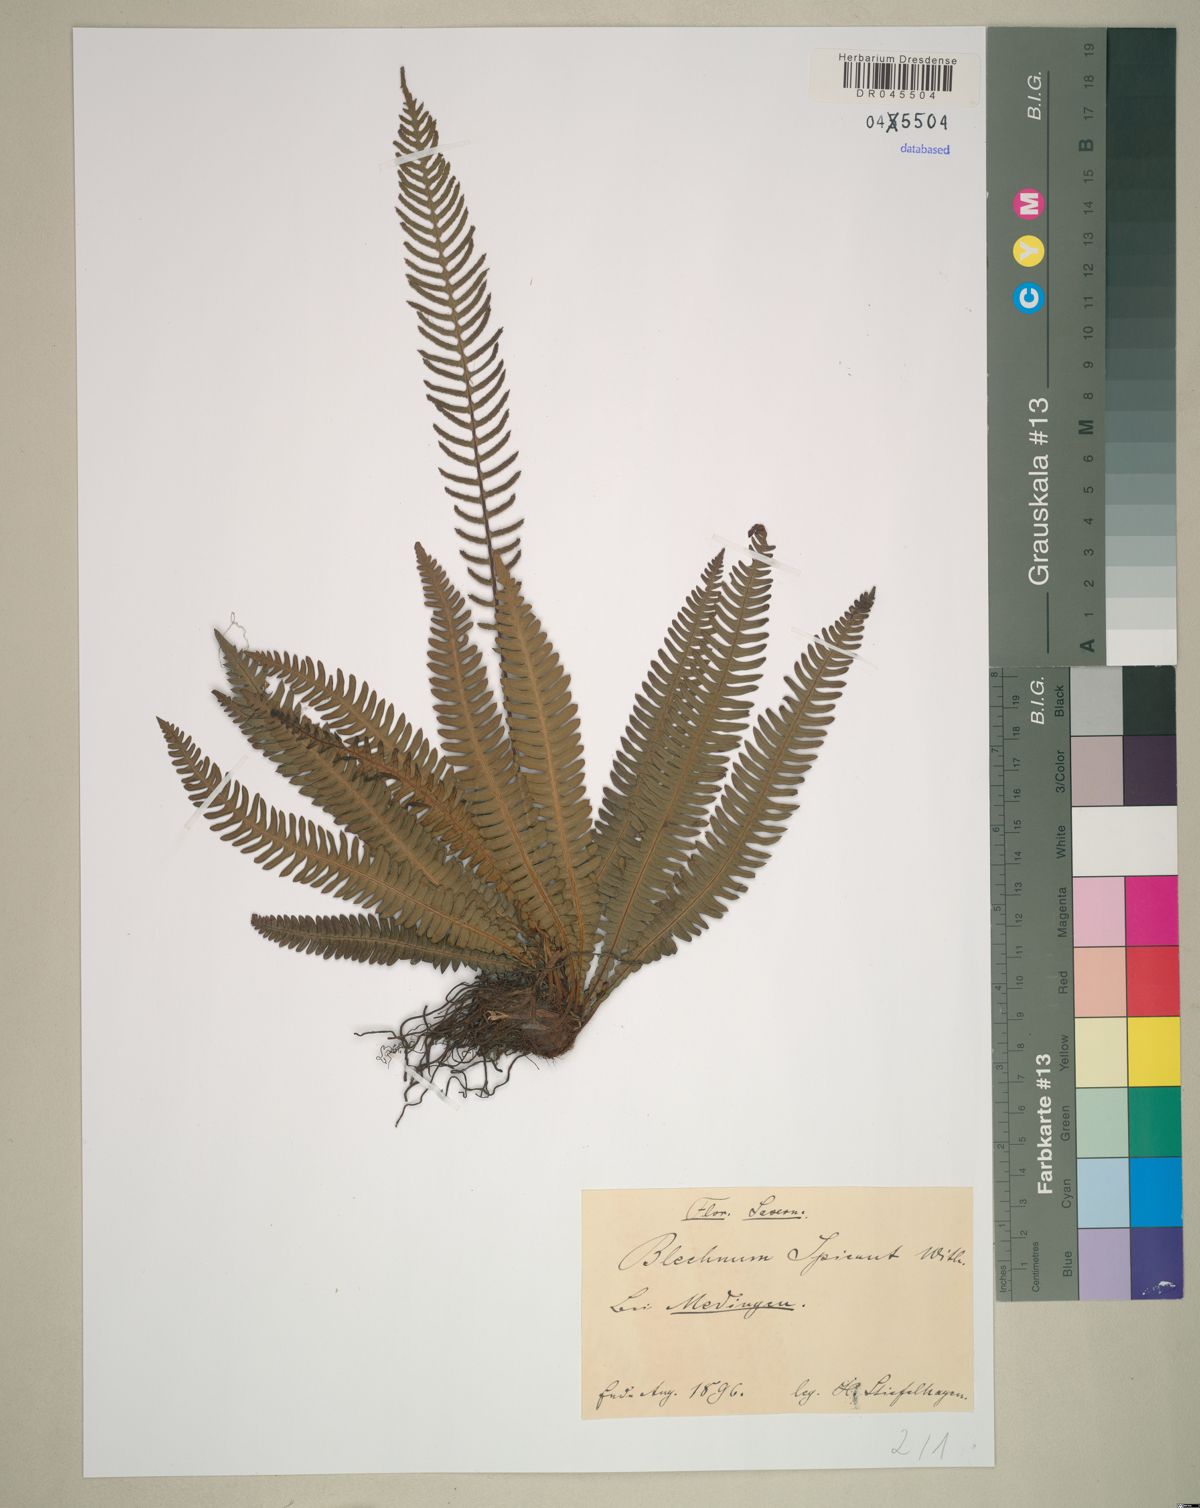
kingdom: Plantae
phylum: Tracheophyta
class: Polypodiopsida
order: Polypodiales
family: Blechnaceae
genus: Struthiopteris
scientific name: Struthiopteris spicant
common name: Deer fern
